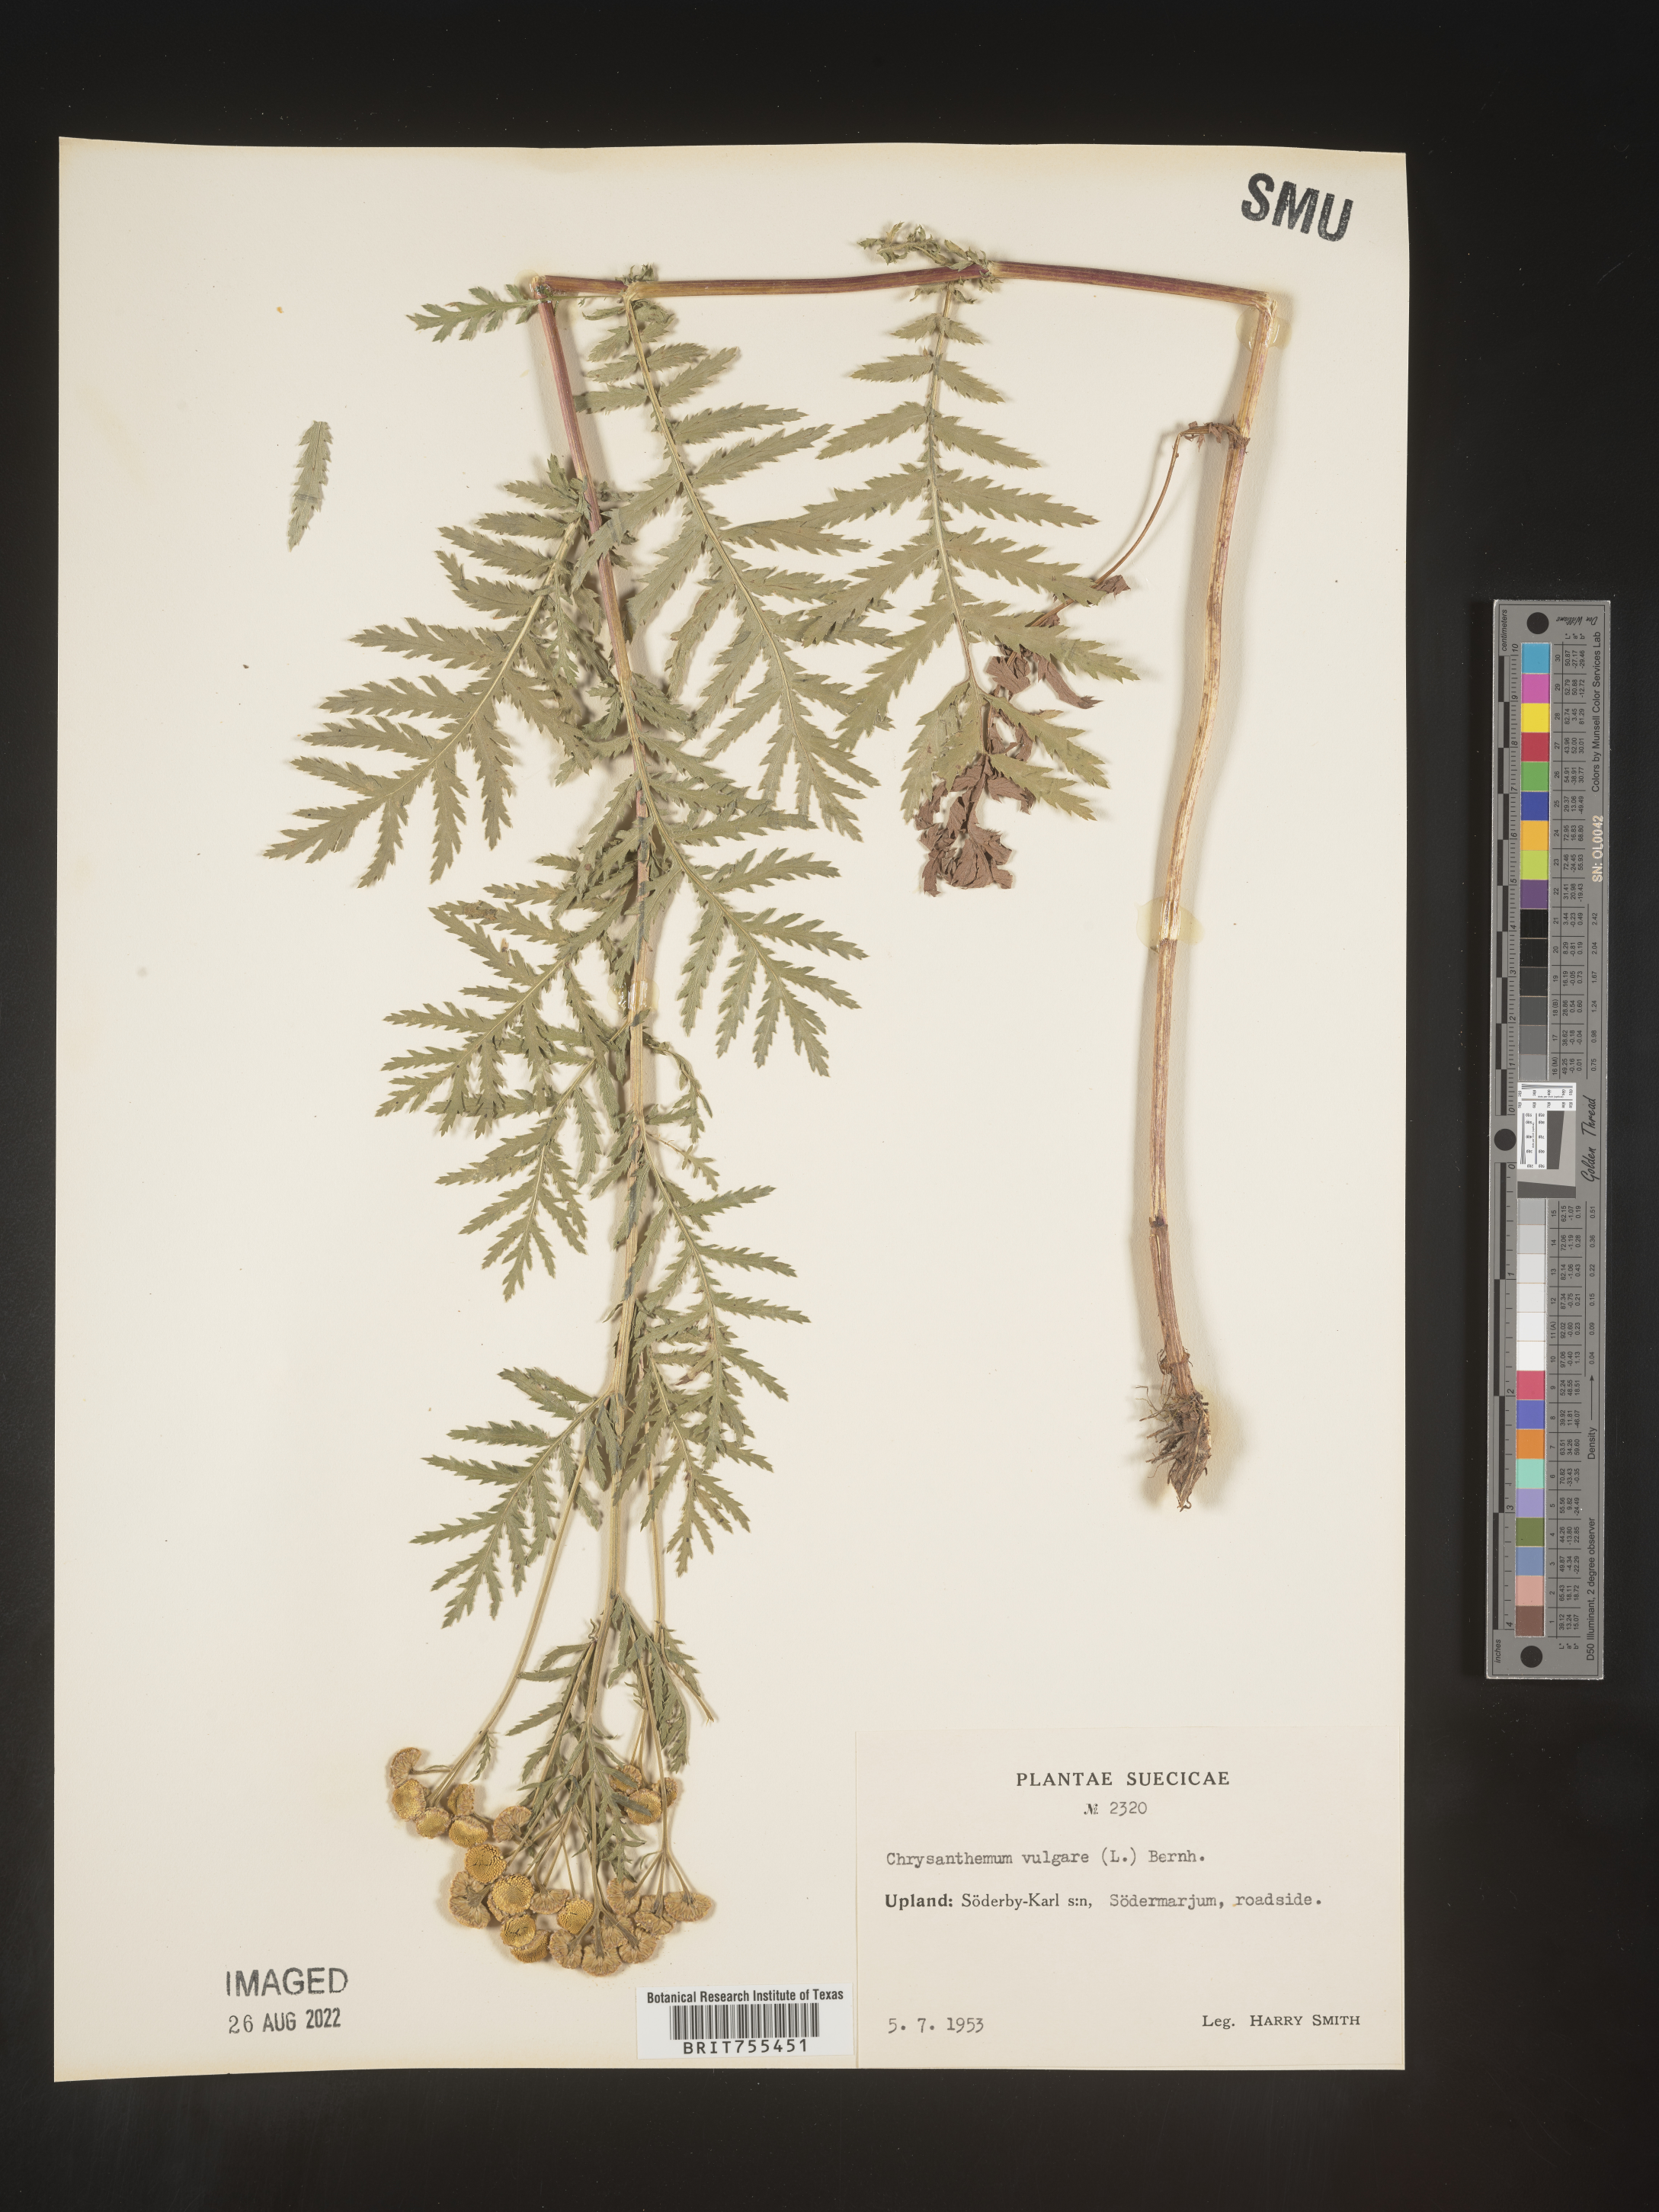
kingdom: Plantae
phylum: Tracheophyta
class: Magnoliopsida
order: Asterales
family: Asteraceae
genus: Tanacetum
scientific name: Tanacetum
